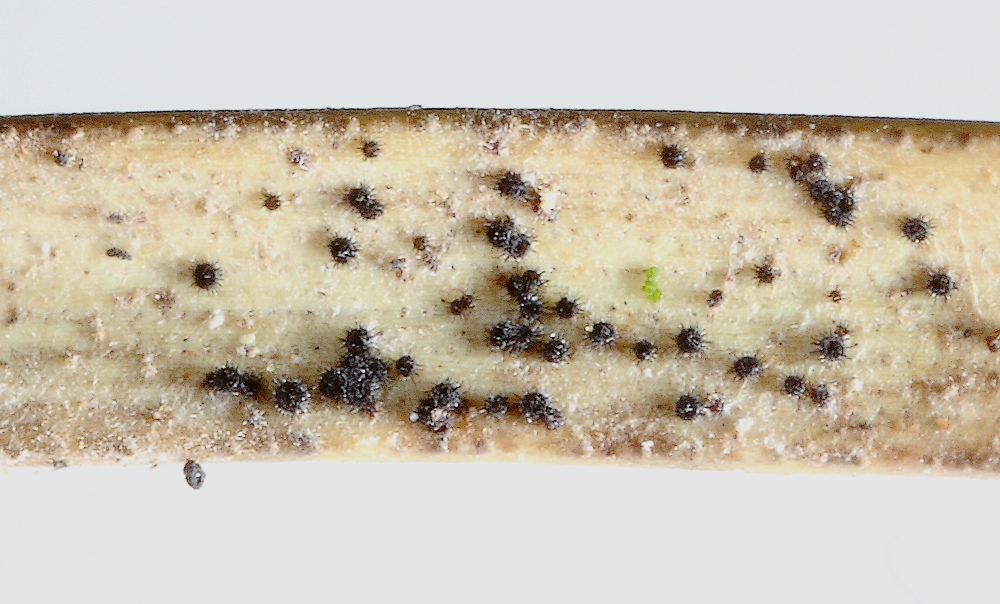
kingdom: Fungi
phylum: Ascomycota
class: Sordariomycetes
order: Hypocreales
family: Niessliaceae
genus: Niesslia
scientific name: Niesslia exilis
